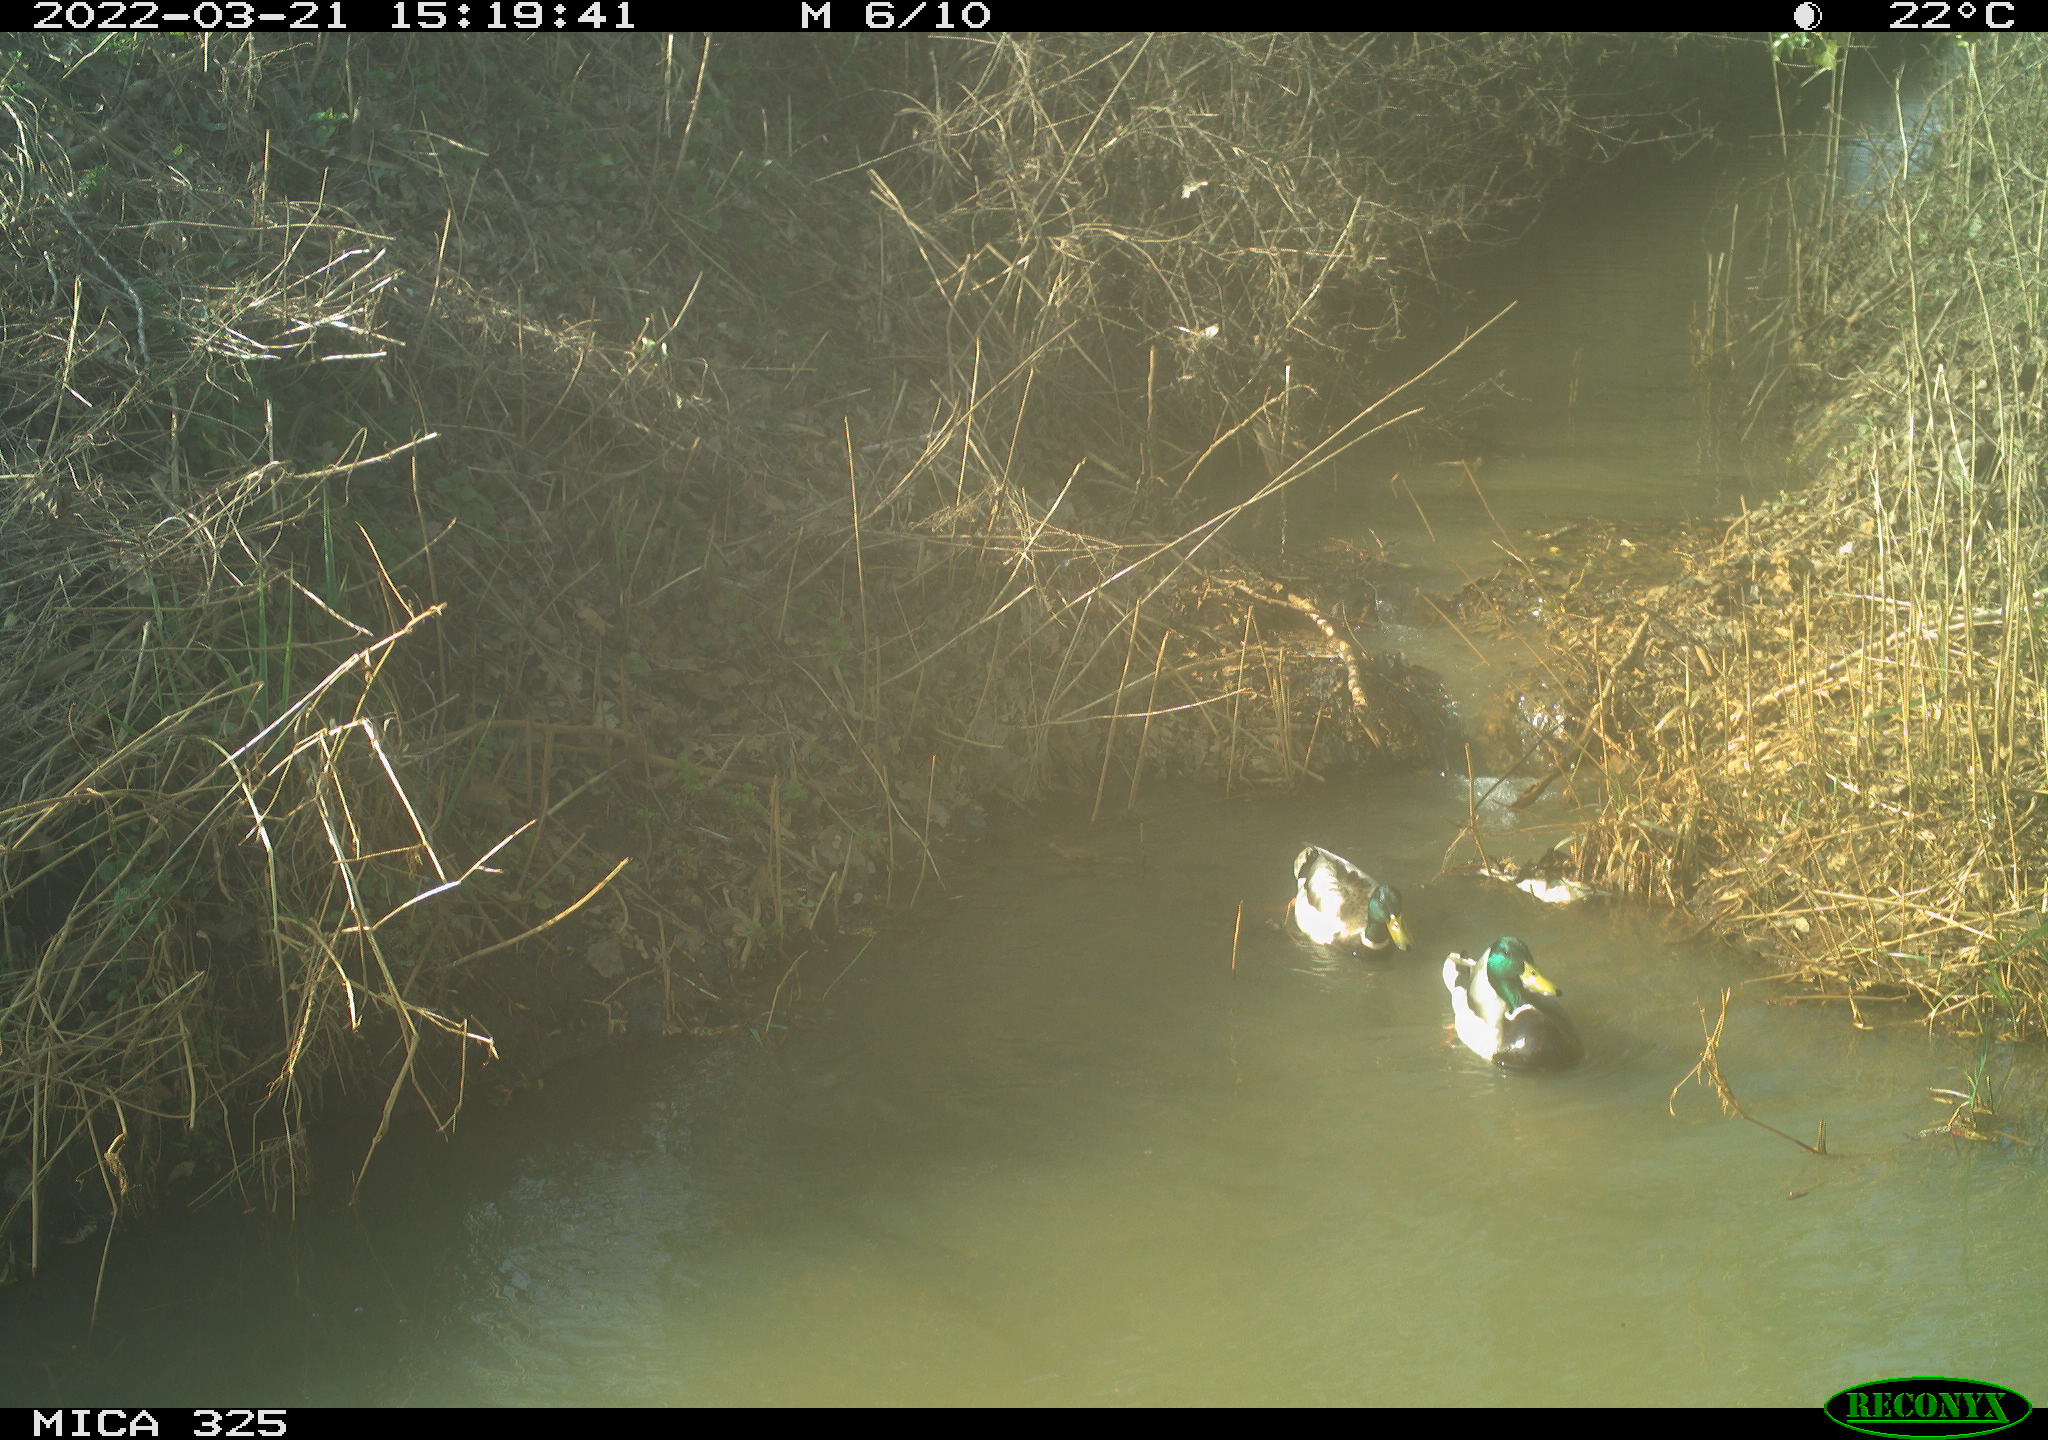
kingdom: Animalia
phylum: Chordata
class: Aves
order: Anseriformes
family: Anatidae
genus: Anas
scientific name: Anas platyrhynchos
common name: Mallard
